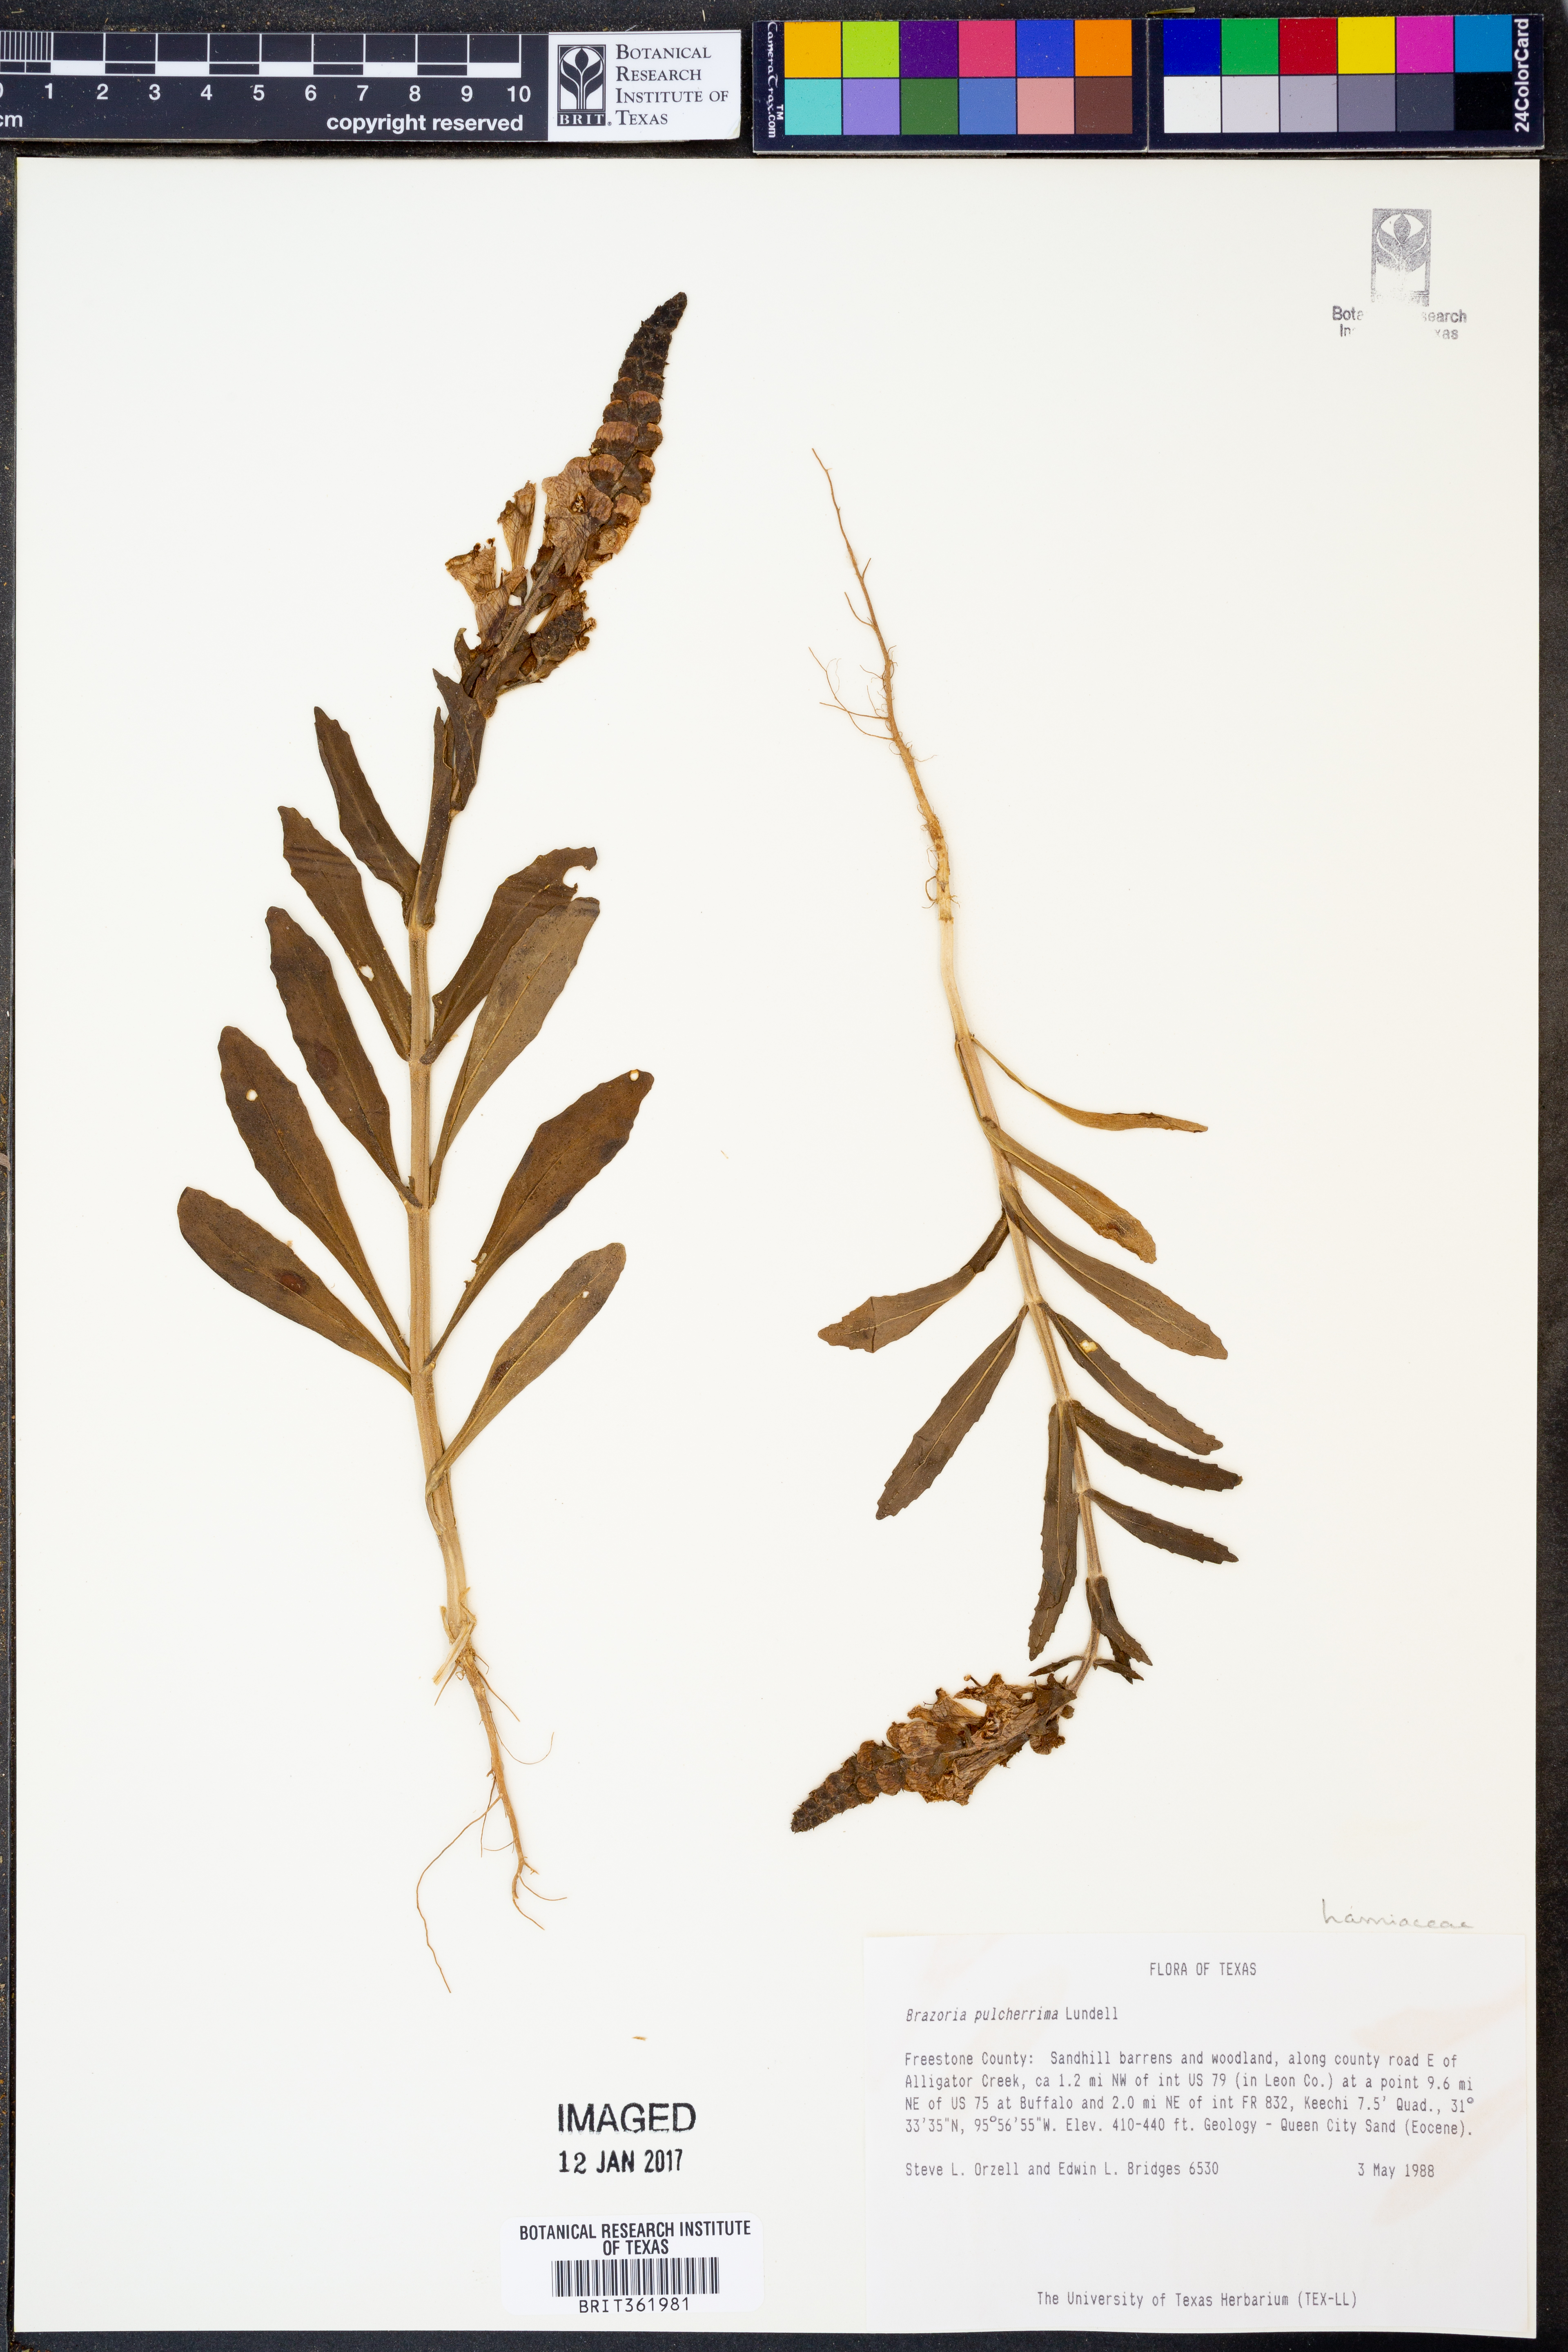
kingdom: Plantae
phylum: Tracheophyta
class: Magnoliopsida
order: Lamiales
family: Lamiaceae
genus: Brazoria
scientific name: Brazoria truncata
